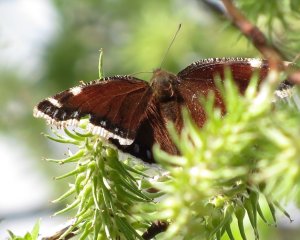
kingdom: Animalia
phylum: Arthropoda
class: Insecta
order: Lepidoptera
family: Nymphalidae
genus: Nymphalis
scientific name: Nymphalis antiopa
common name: Mourning Cloak
